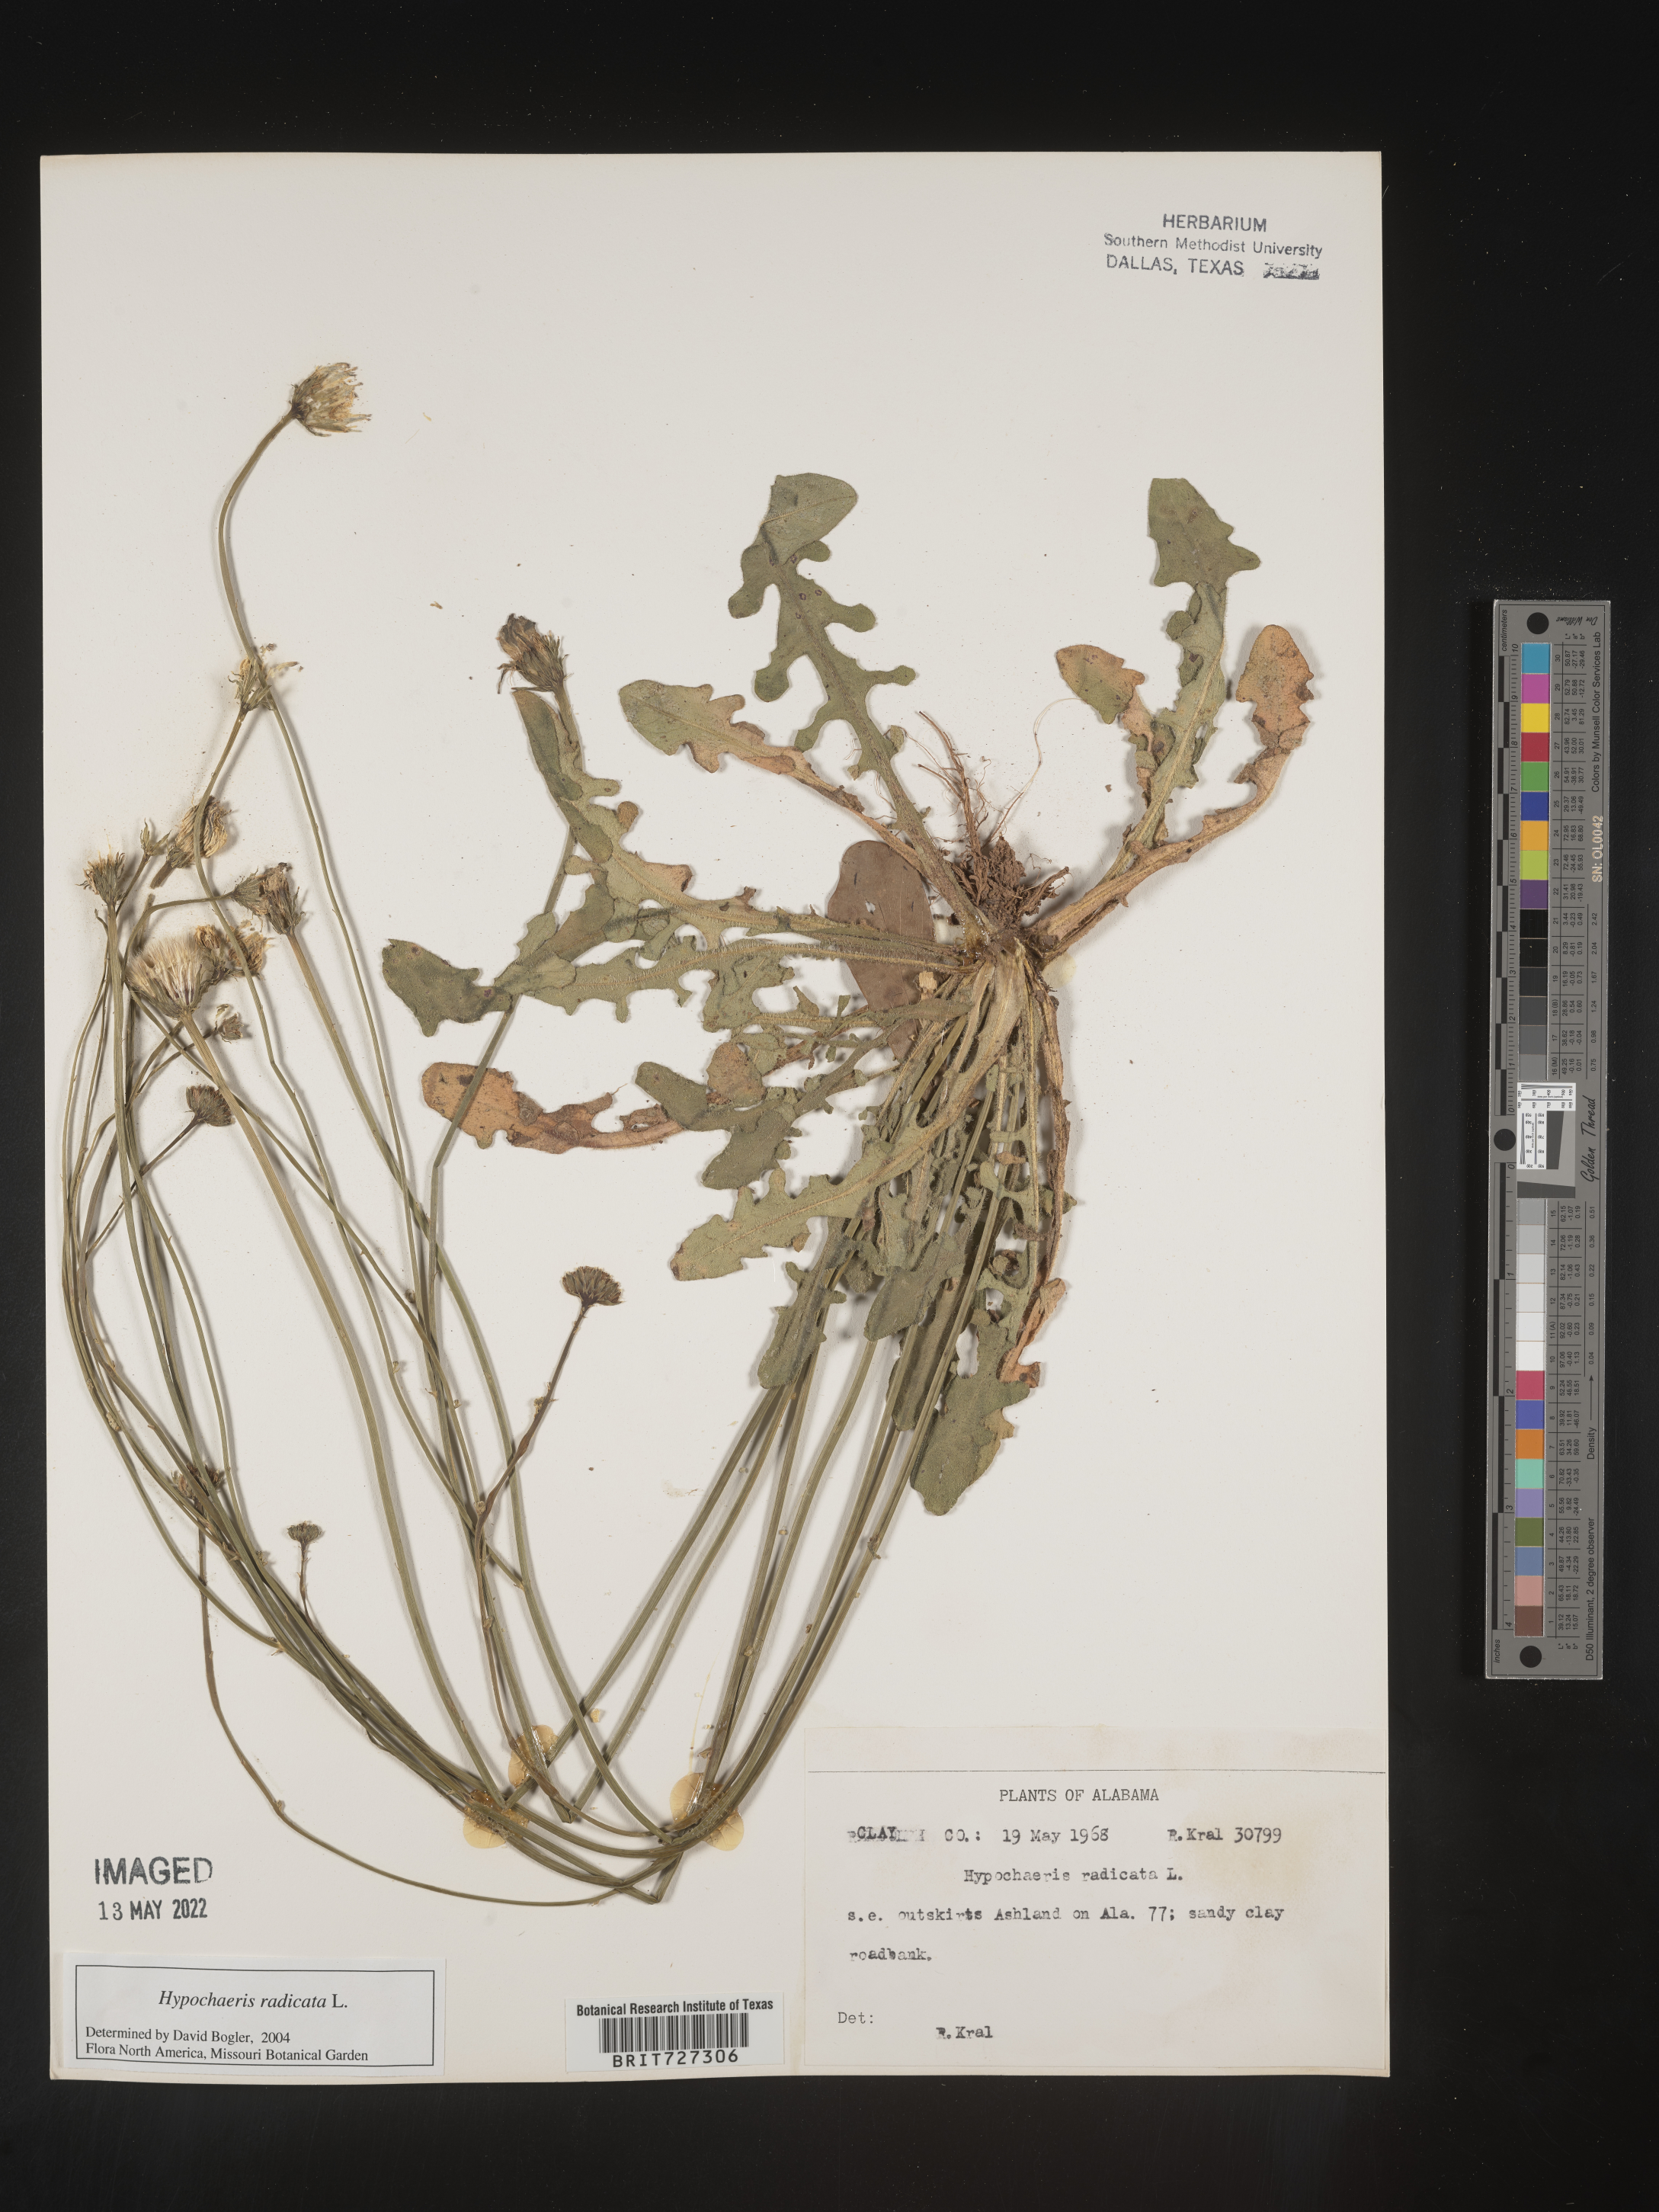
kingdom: Plantae
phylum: Tracheophyta
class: Magnoliopsida
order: Asterales
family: Asteraceae
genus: Hypochaeris
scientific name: Hypochaeris radicata
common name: Flatweed
